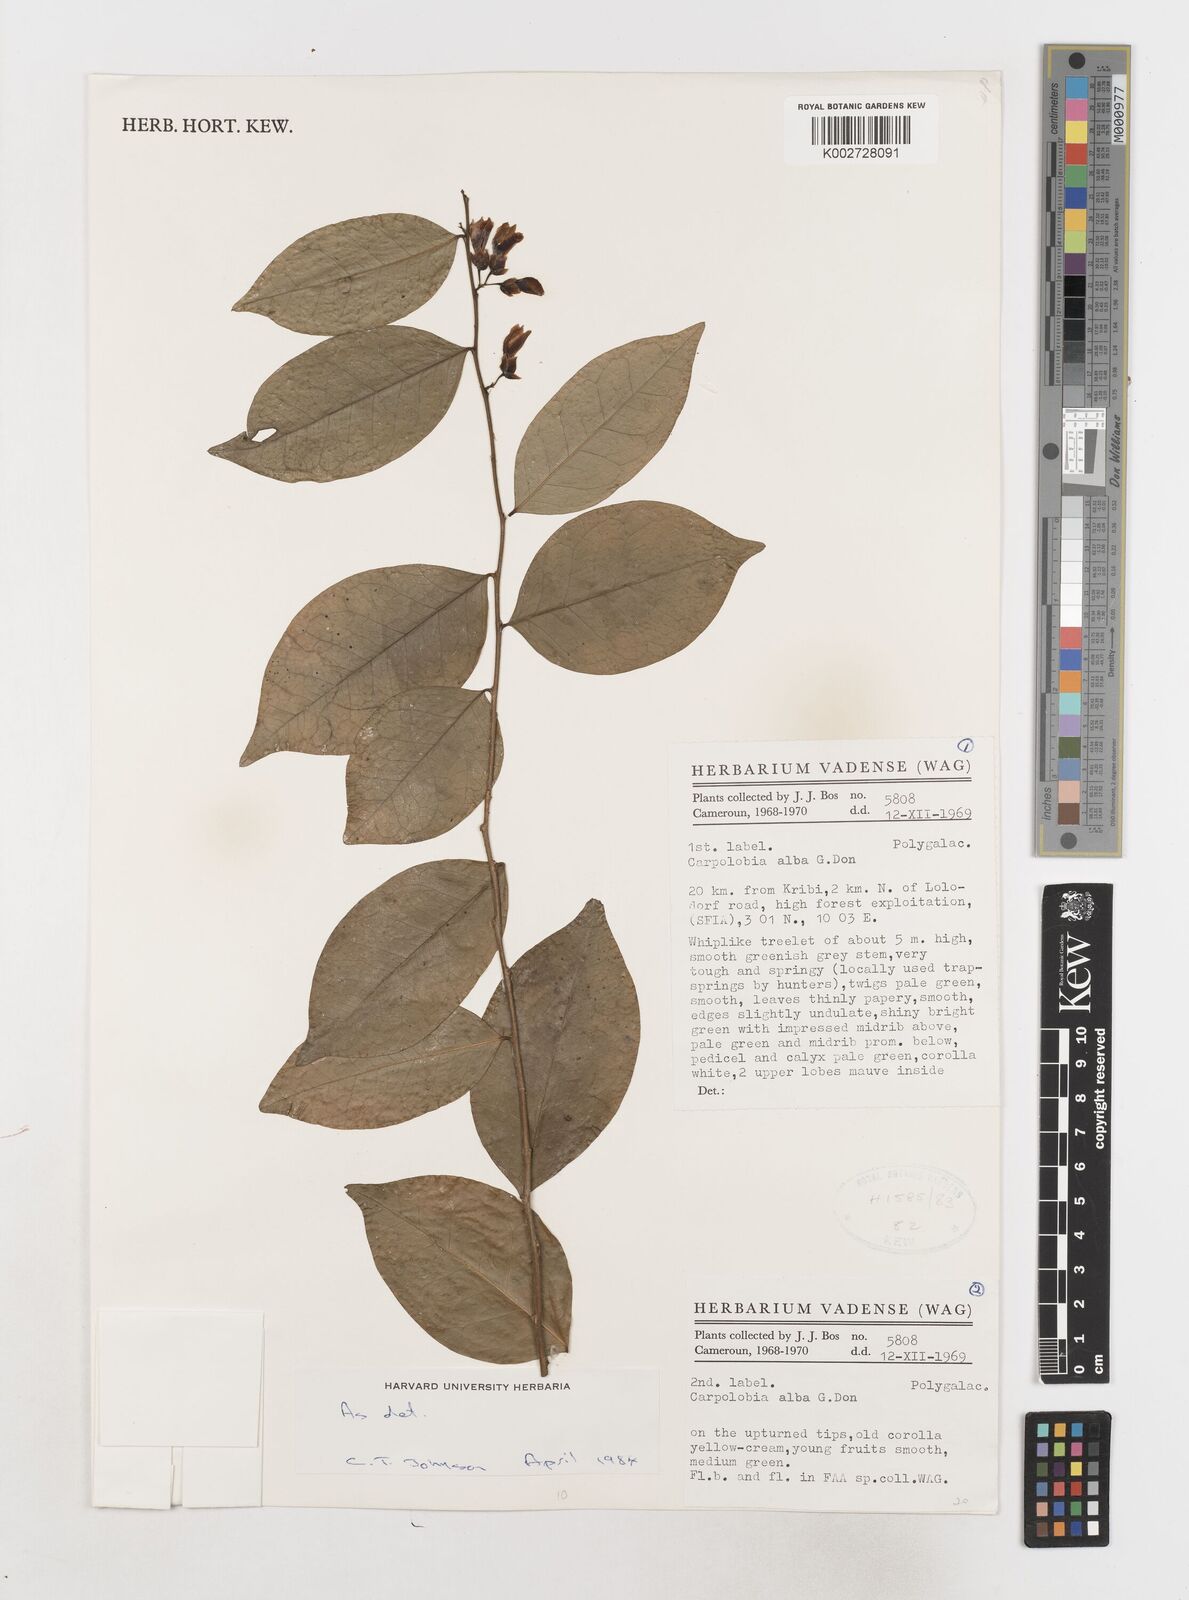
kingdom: Plantae
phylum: Tracheophyta
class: Magnoliopsida
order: Fabales
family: Polygalaceae
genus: Carpolobia
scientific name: Carpolobia alba
